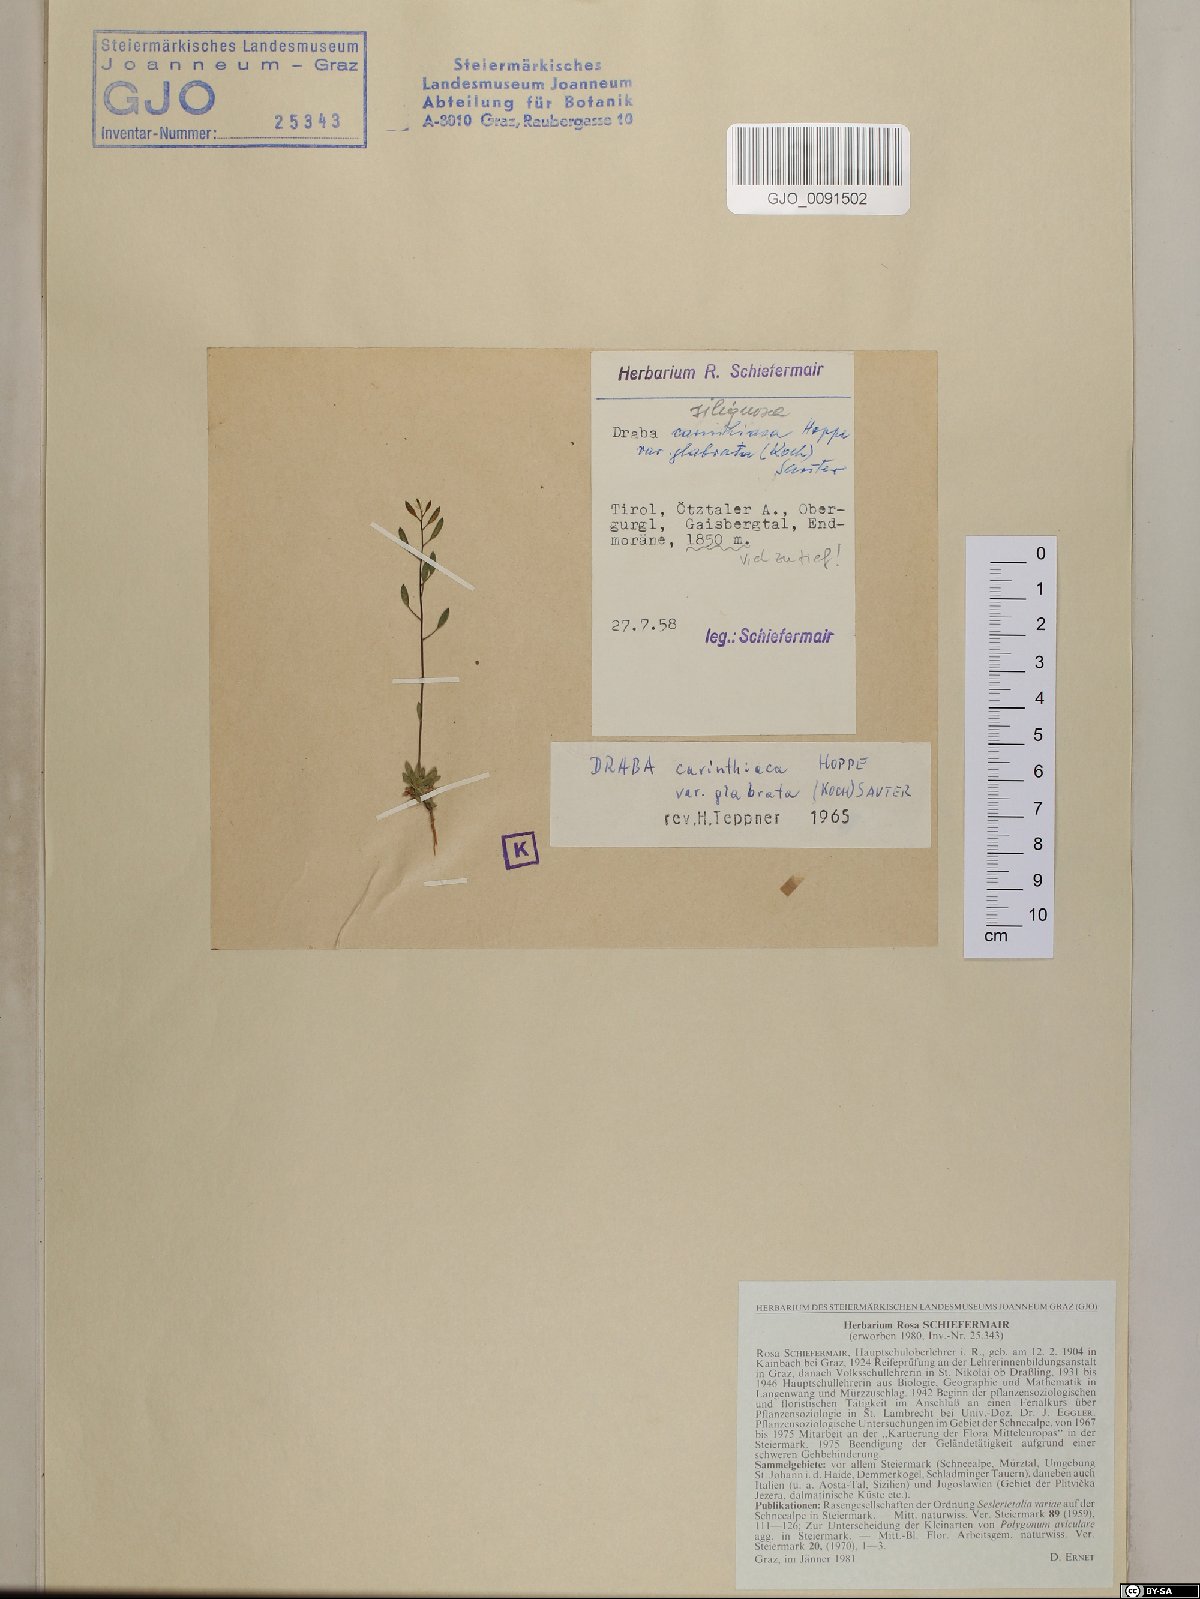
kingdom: Plantae
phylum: Tracheophyta
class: Magnoliopsida
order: Brassicales
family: Brassicaceae
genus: Draba
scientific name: Draba siliquosa
